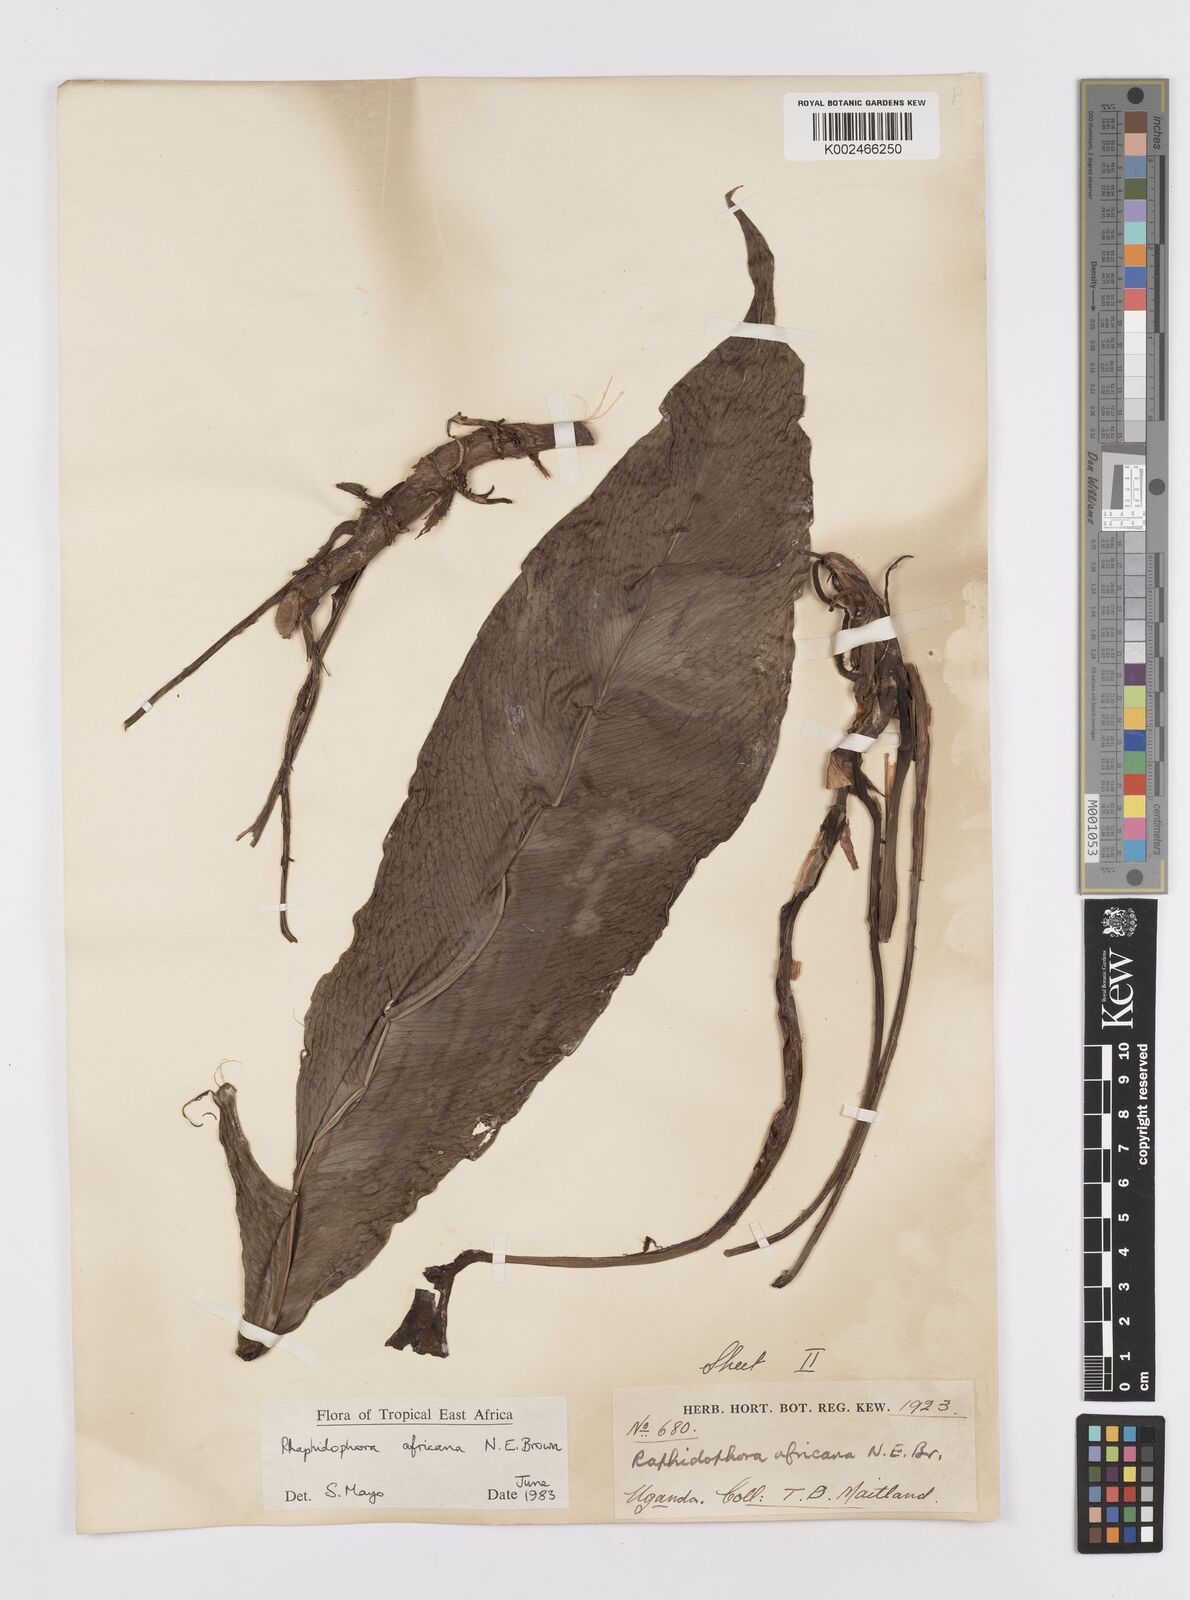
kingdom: Plantae
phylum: Tracheophyta
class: Liliopsida
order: Alismatales
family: Araceae
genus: Rhaphidophora
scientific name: Rhaphidophora africana
